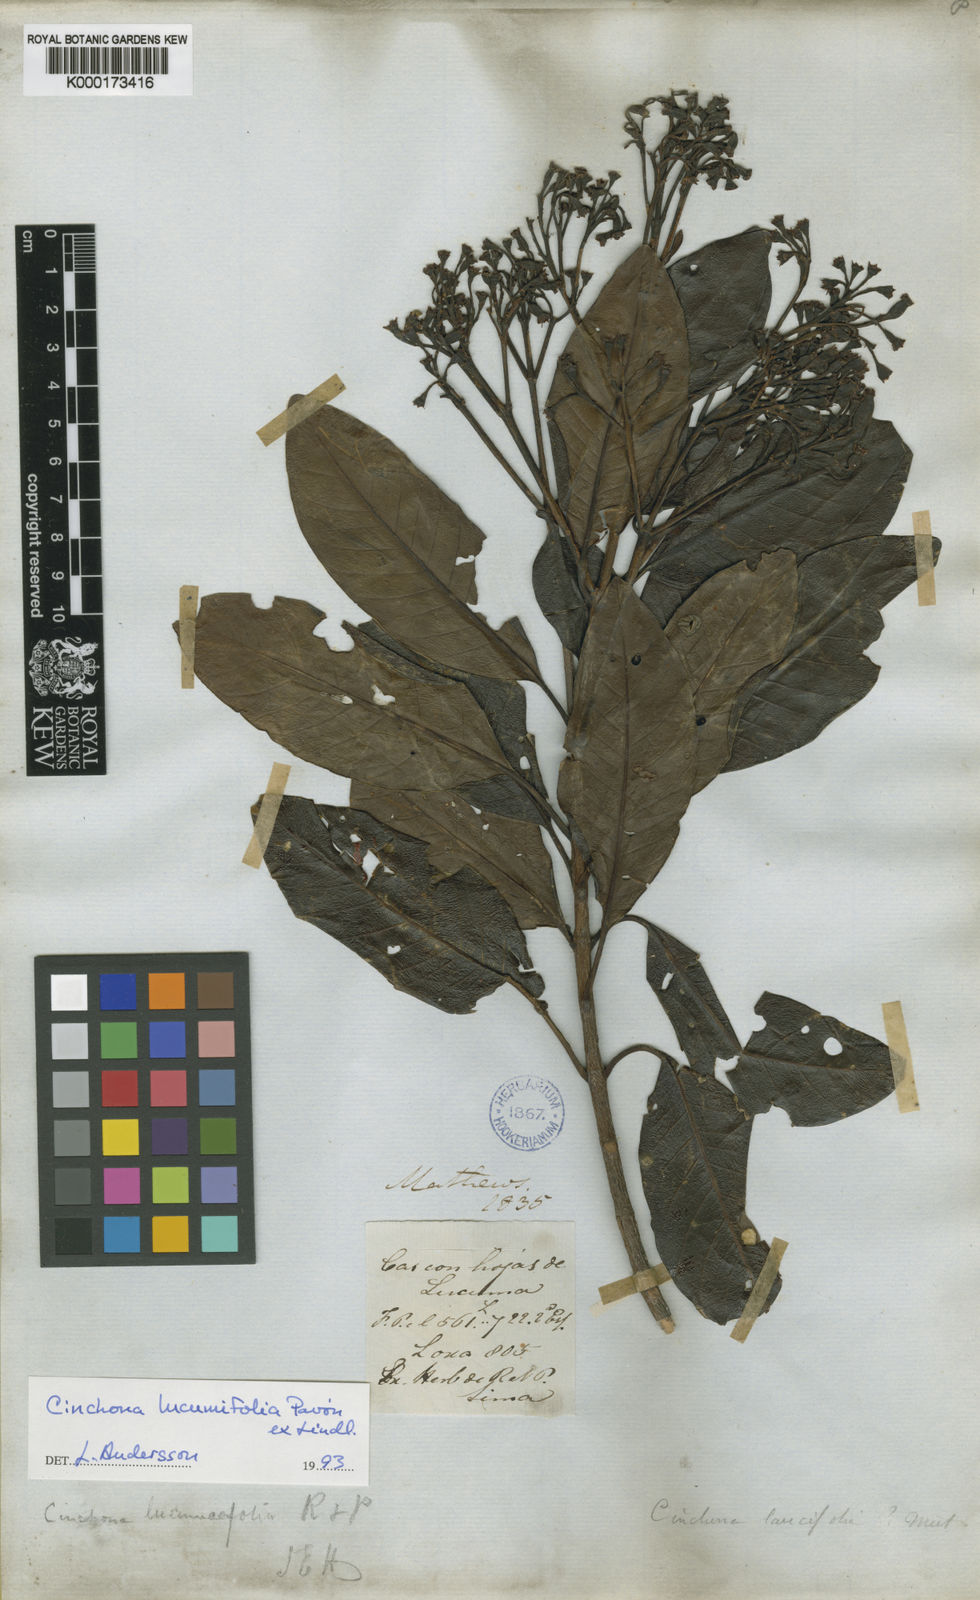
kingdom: Plantae
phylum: Tracheophyta
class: Magnoliopsida
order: Gentianales
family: Rubiaceae
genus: Cinchona
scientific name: Cinchona lucumifolia
